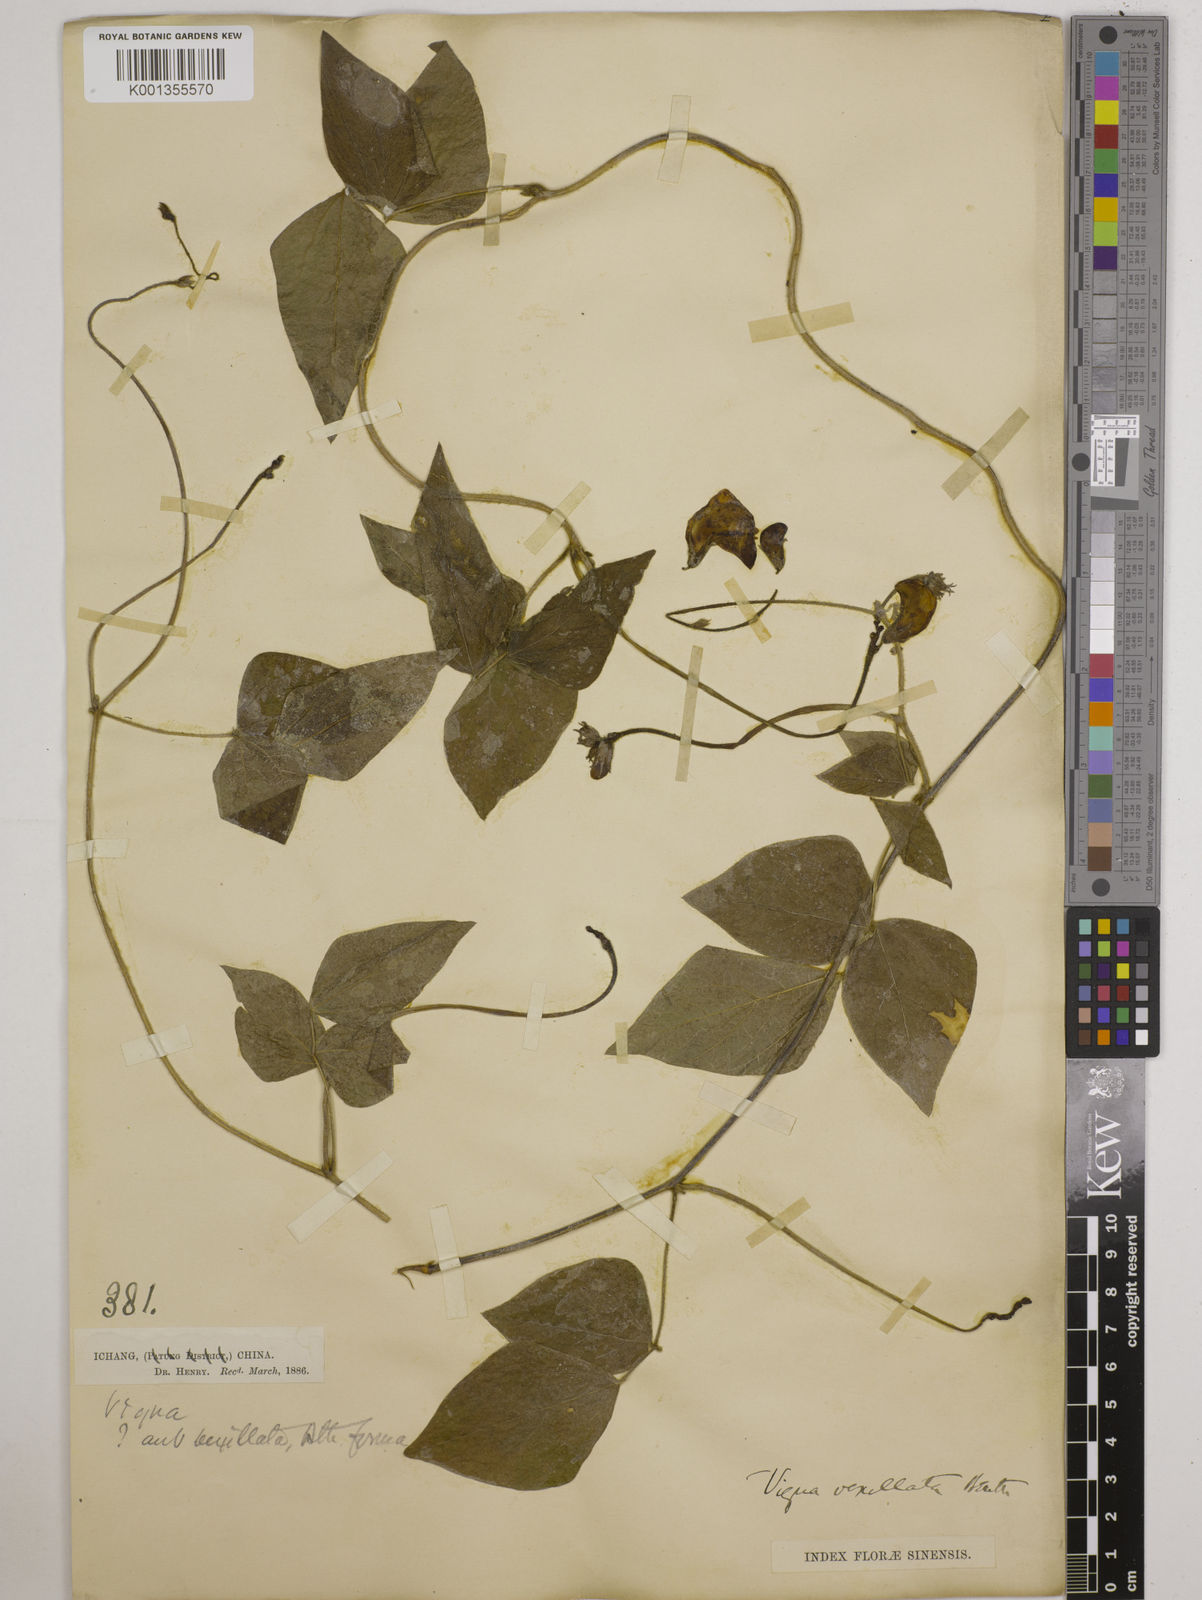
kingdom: Plantae
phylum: Tracheophyta
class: Magnoliopsida
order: Fabales
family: Fabaceae
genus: Vigna
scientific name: Vigna vexillata
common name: Zombi pea
